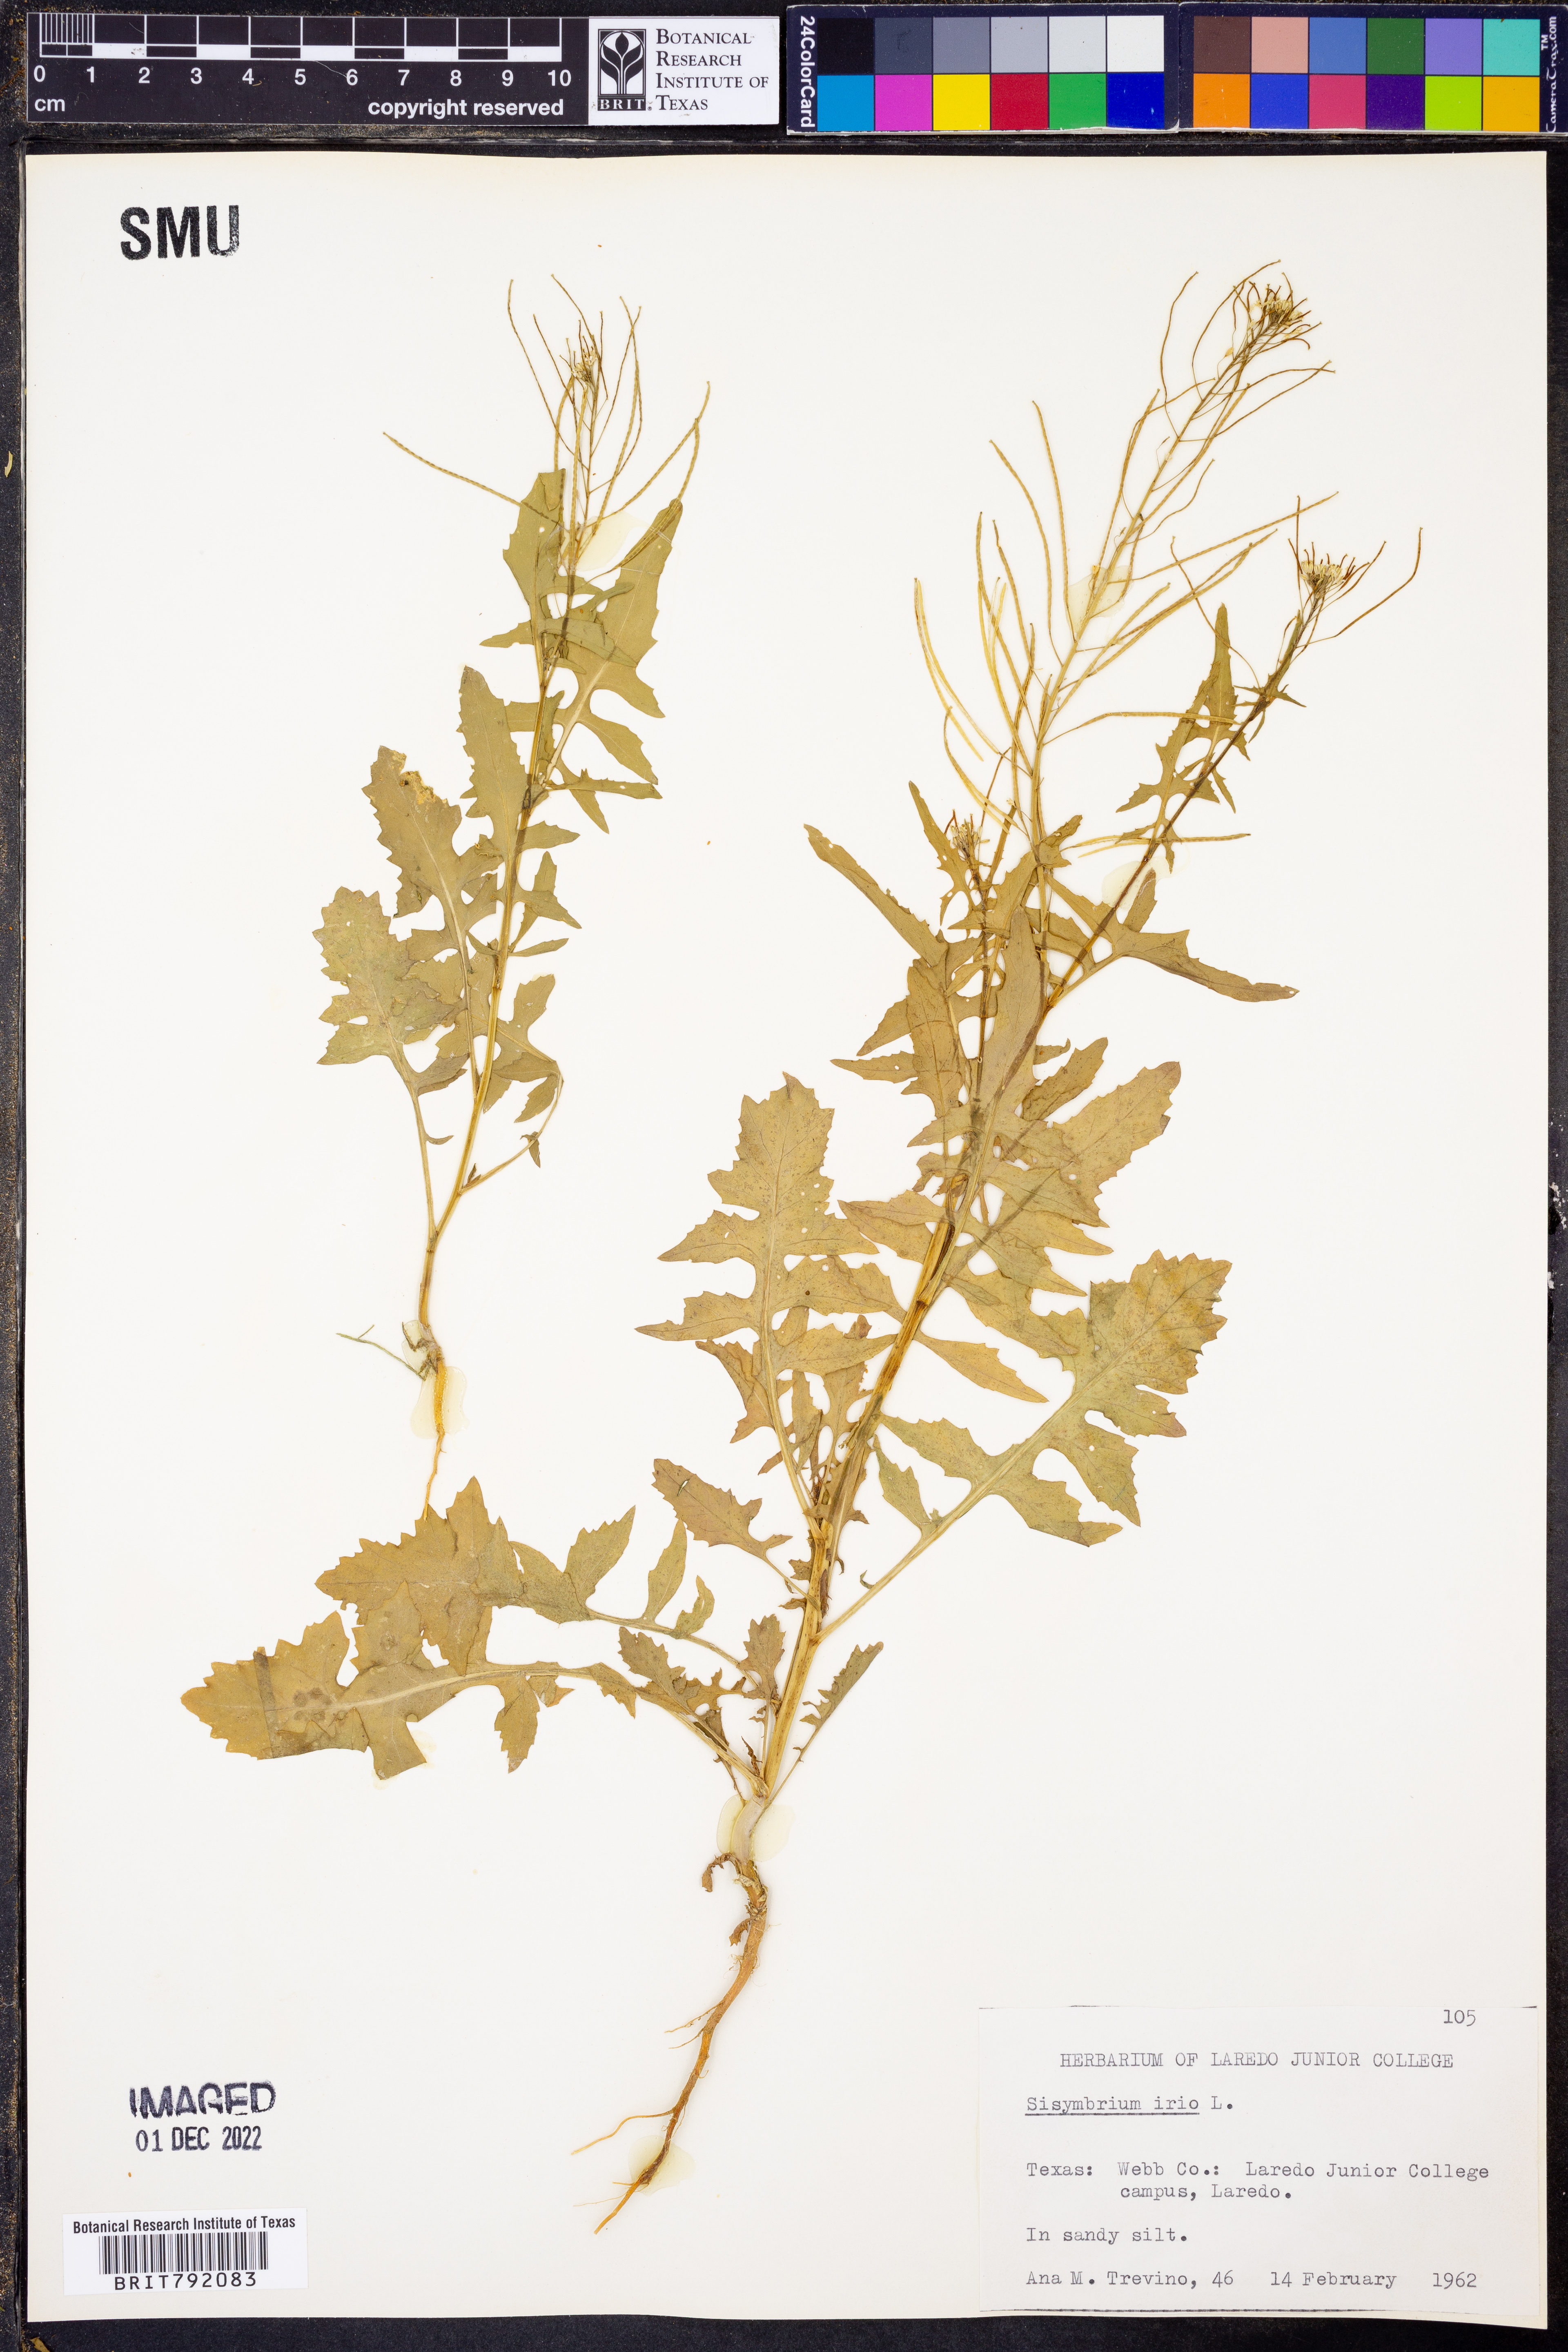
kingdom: Plantae
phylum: Tracheophyta
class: Magnoliopsida
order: Brassicales
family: Brassicaceae
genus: Sisymbrium
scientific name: Sisymbrium irio
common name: London rocket
